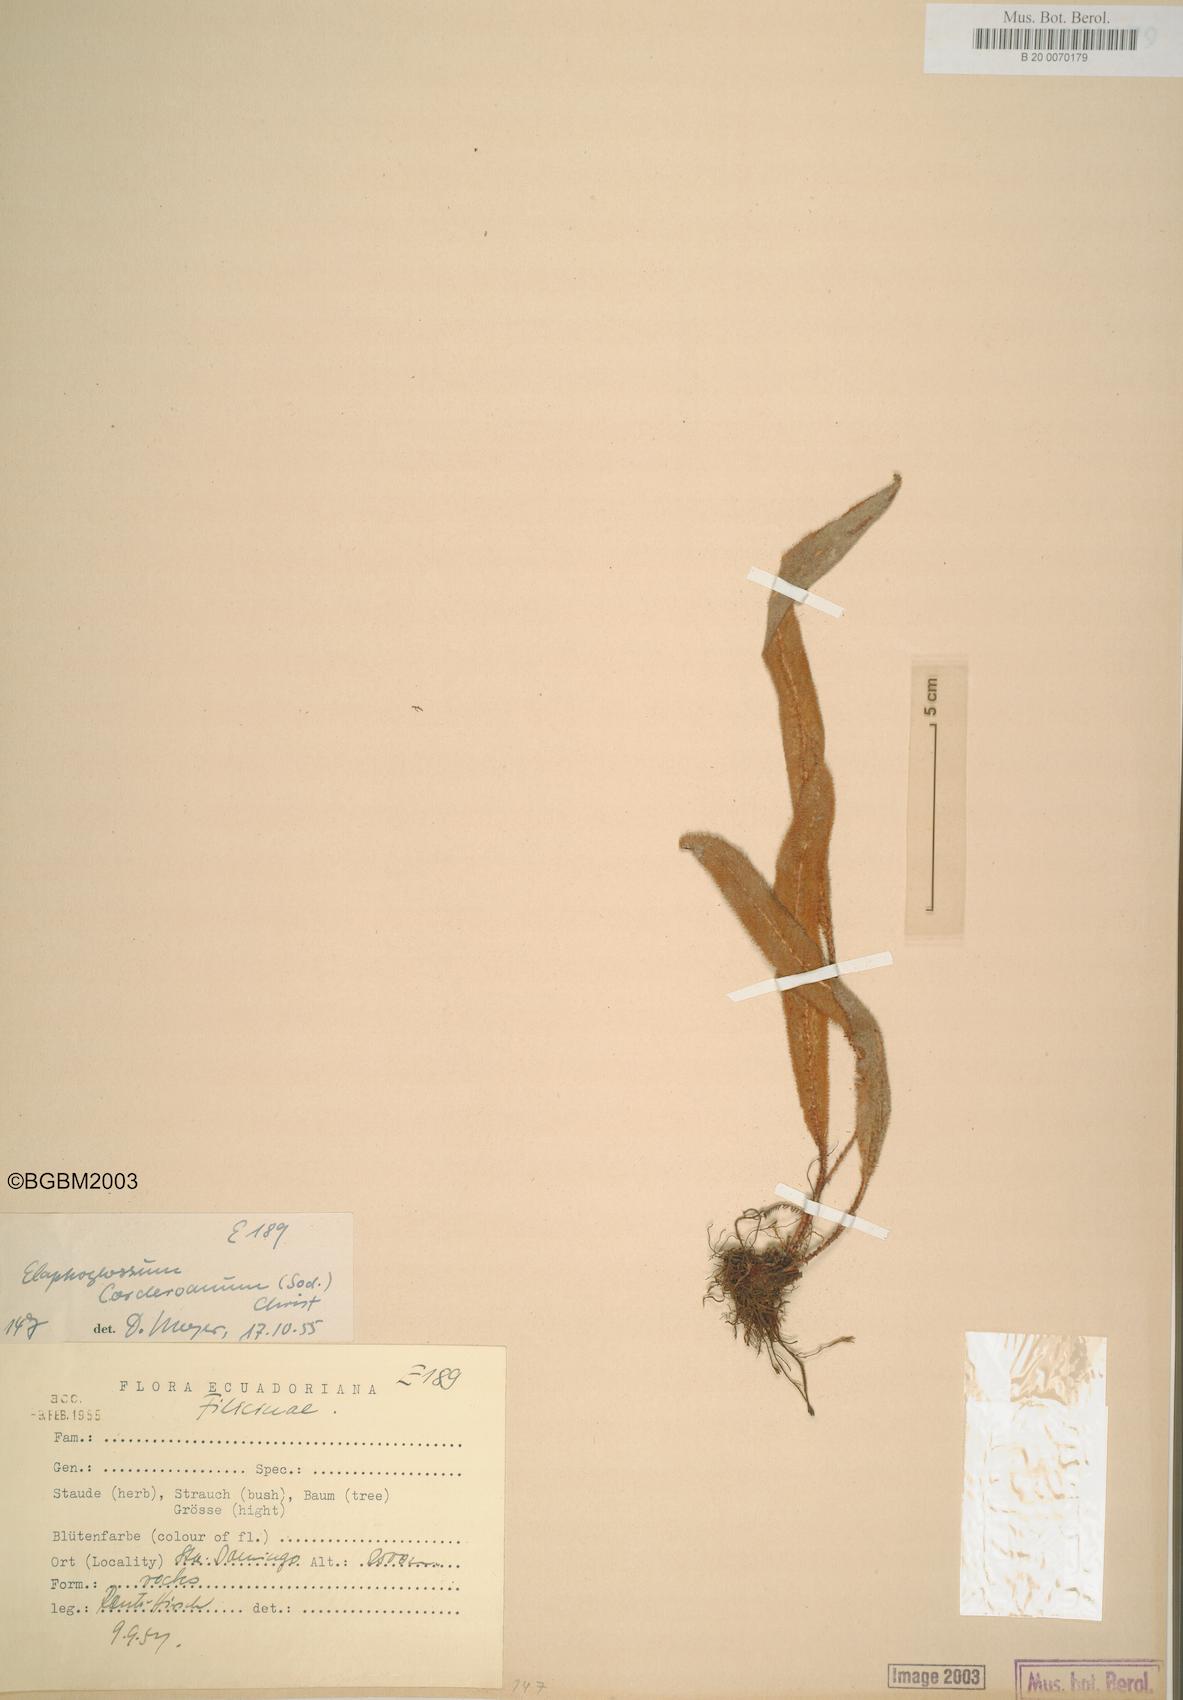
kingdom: Plantae
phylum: Tracheophyta
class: Polypodiopsida
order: Polypodiales
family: Dryopteridaceae
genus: Elaphoglossum
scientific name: Elaphoglossum corderoanum
